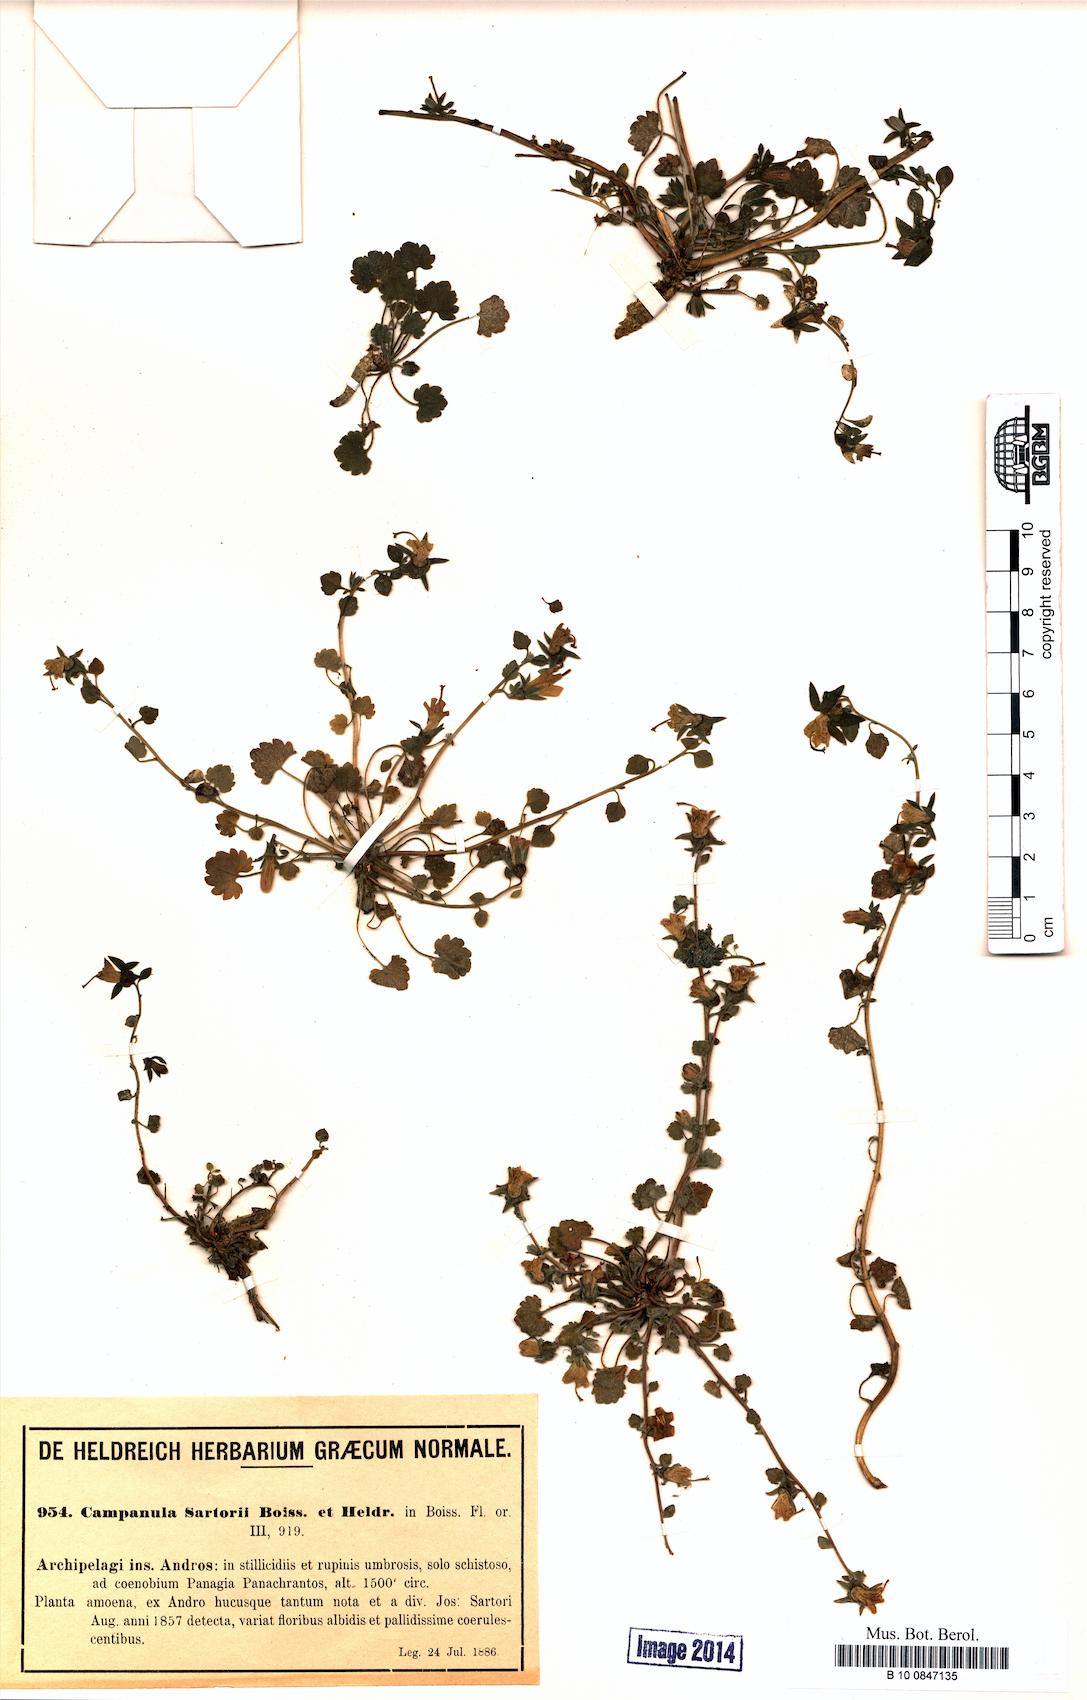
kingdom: Plantae
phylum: Tracheophyta
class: Magnoliopsida
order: Asterales
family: Campanulaceae
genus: Campanula
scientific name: Campanula sartorii
